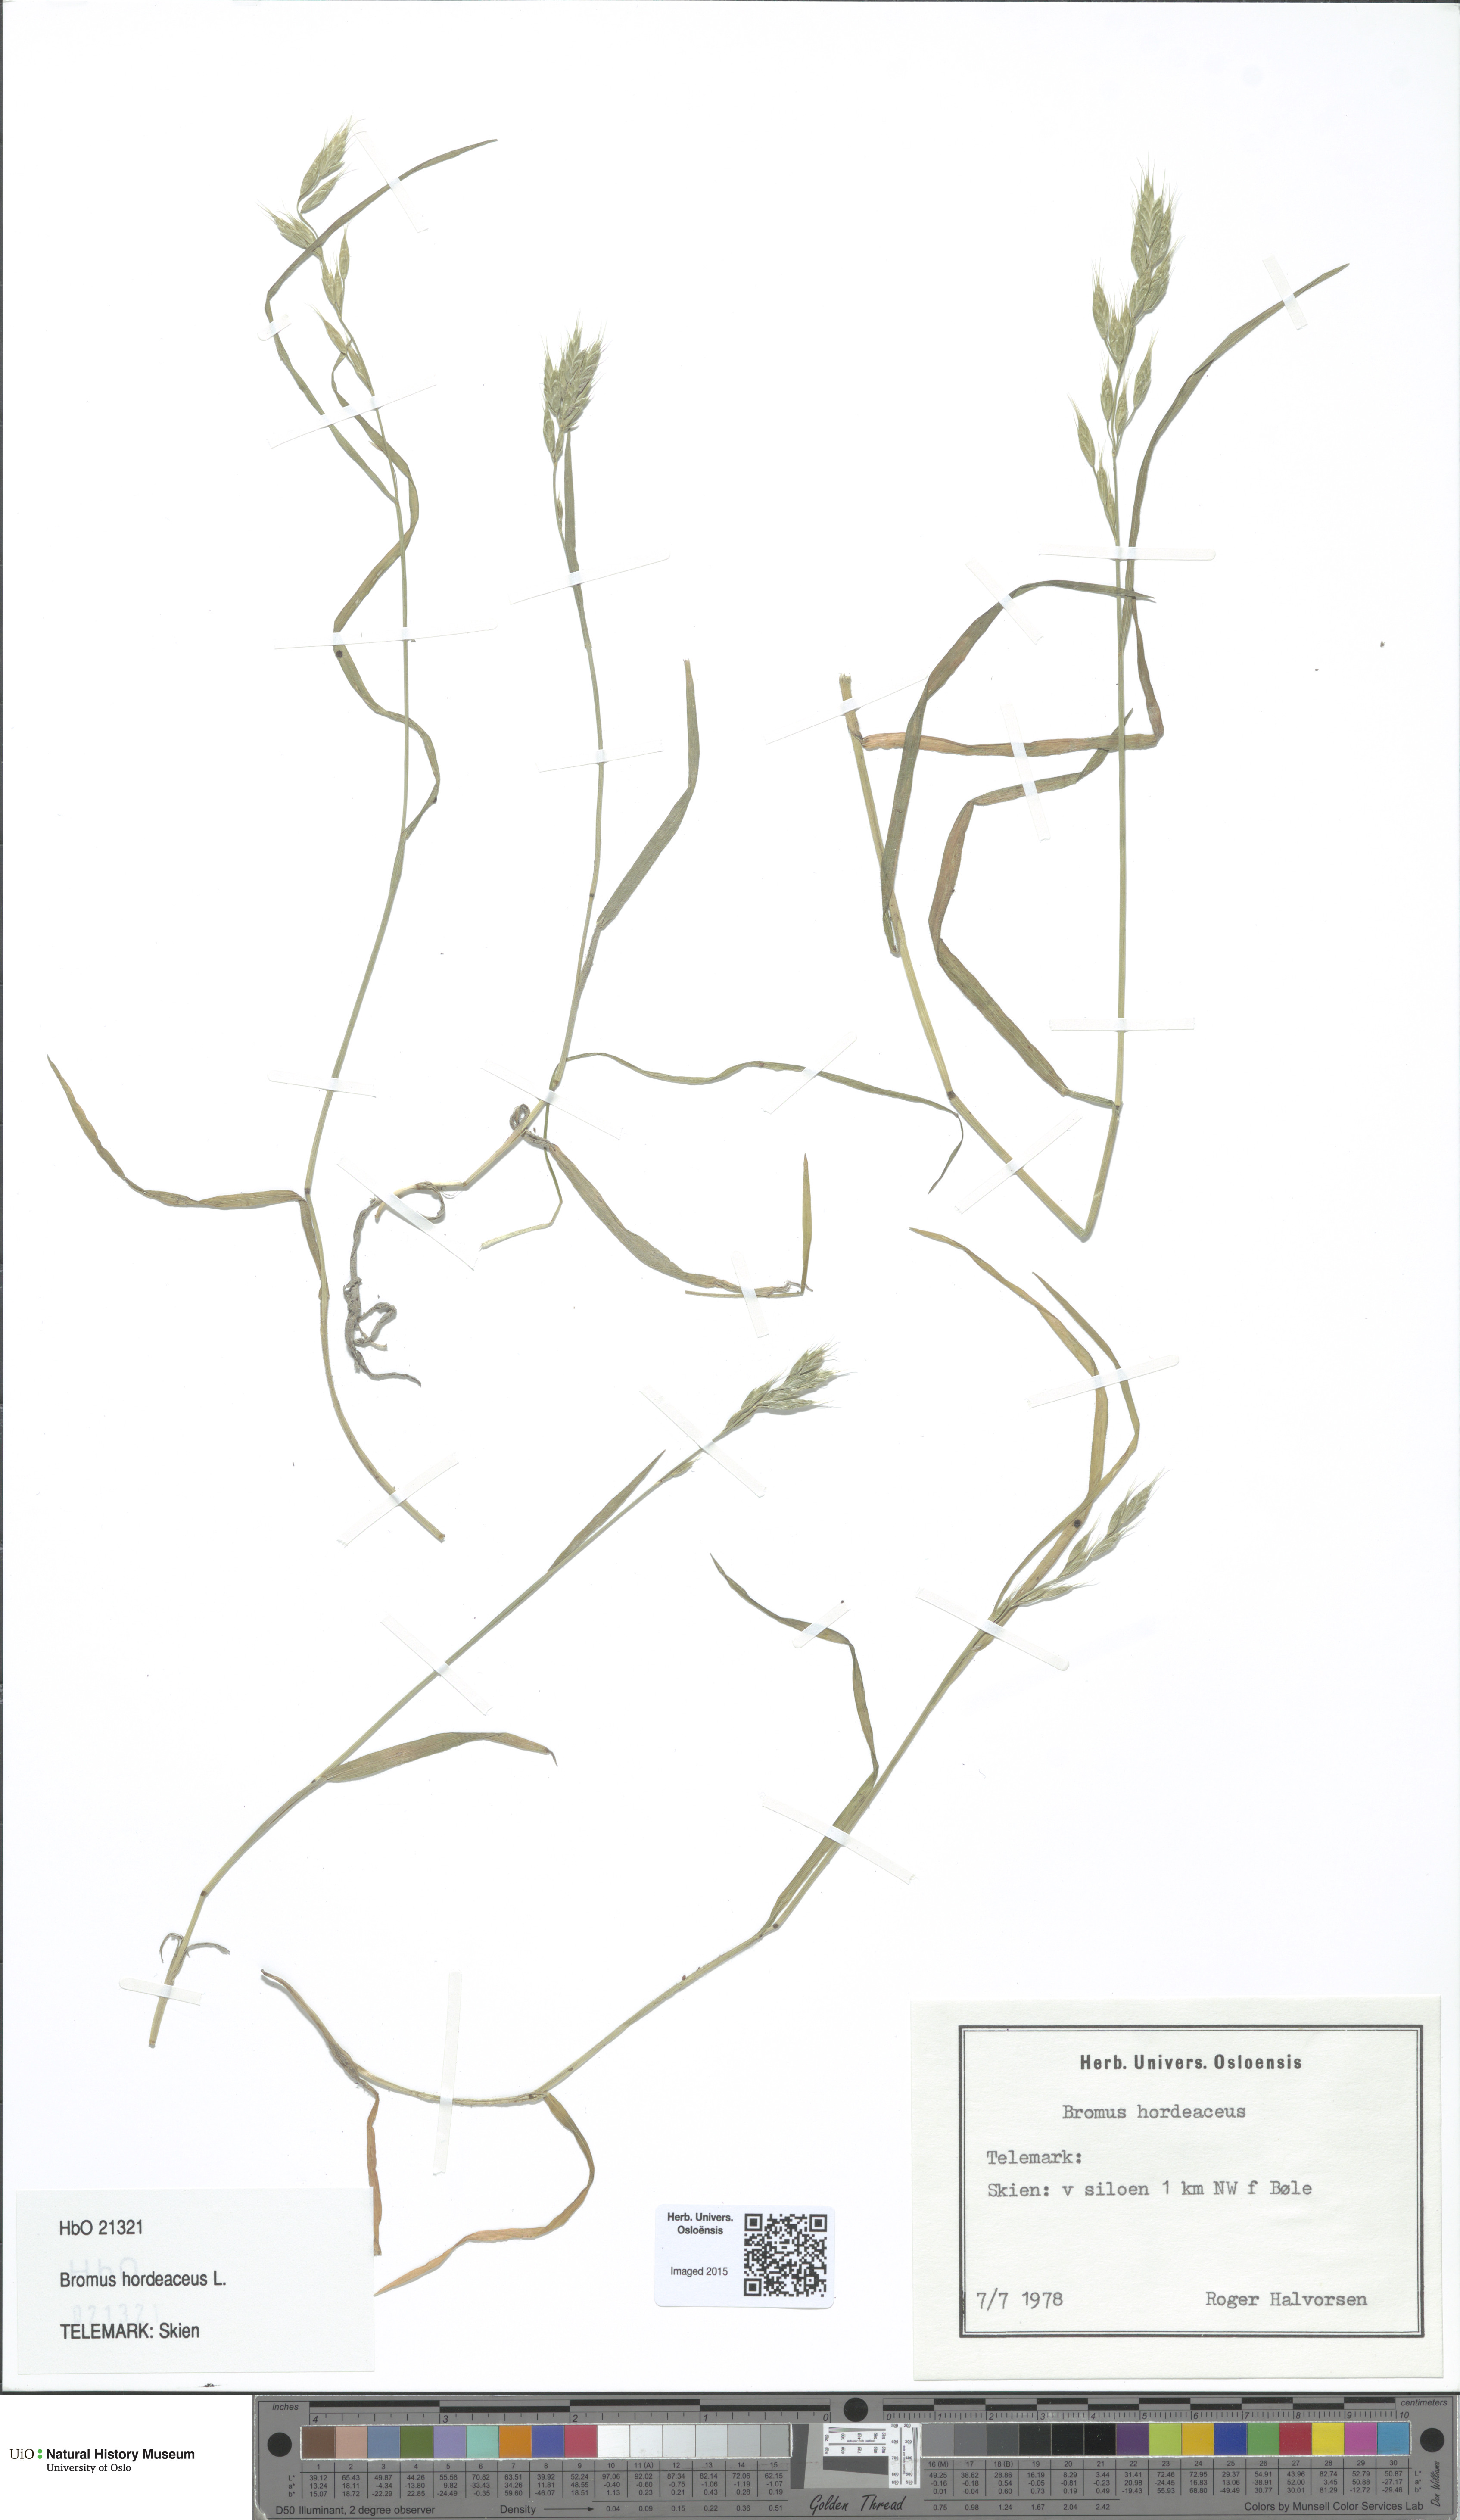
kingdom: Plantae
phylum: Tracheophyta
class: Liliopsida
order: Poales
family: Poaceae
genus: Bromus
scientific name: Bromus hordeaceus
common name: Soft brome
